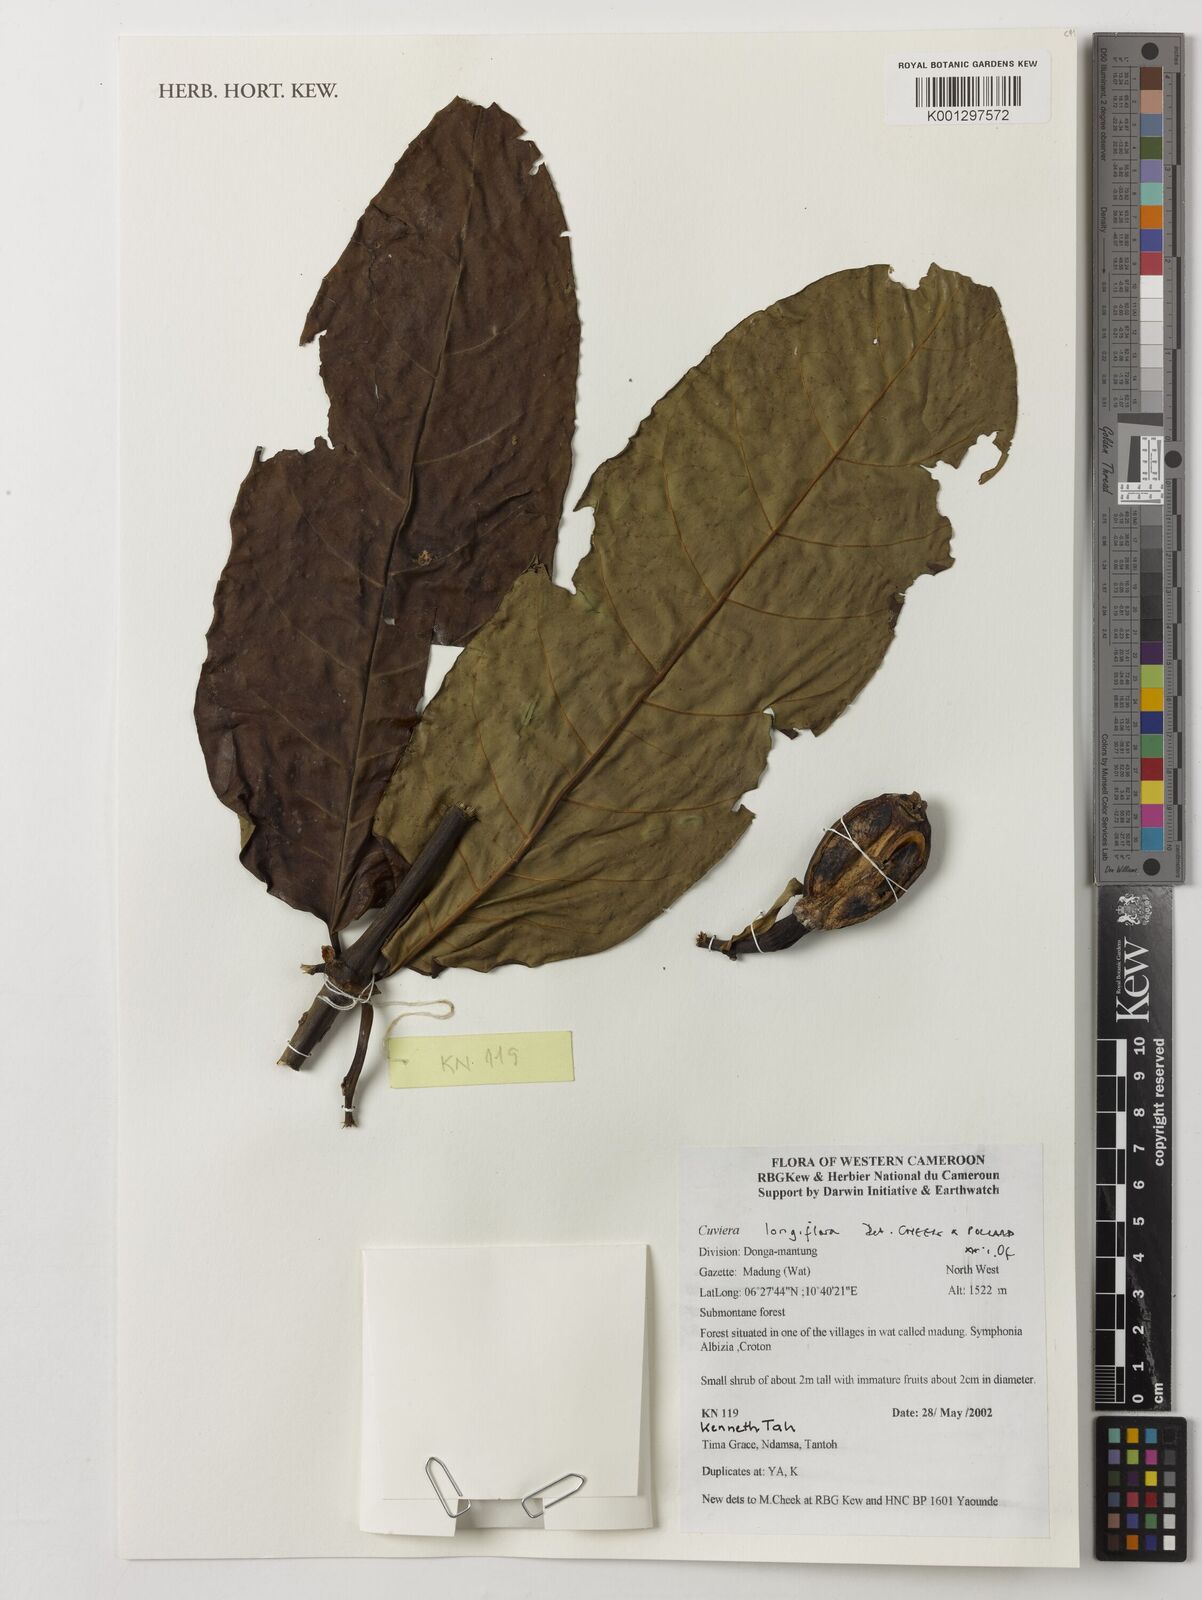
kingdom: Plantae
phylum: Tracheophyta
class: Magnoliopsida
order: Gentianales
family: Rubiaceae
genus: Cuviera
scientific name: Cuviera longiflora
